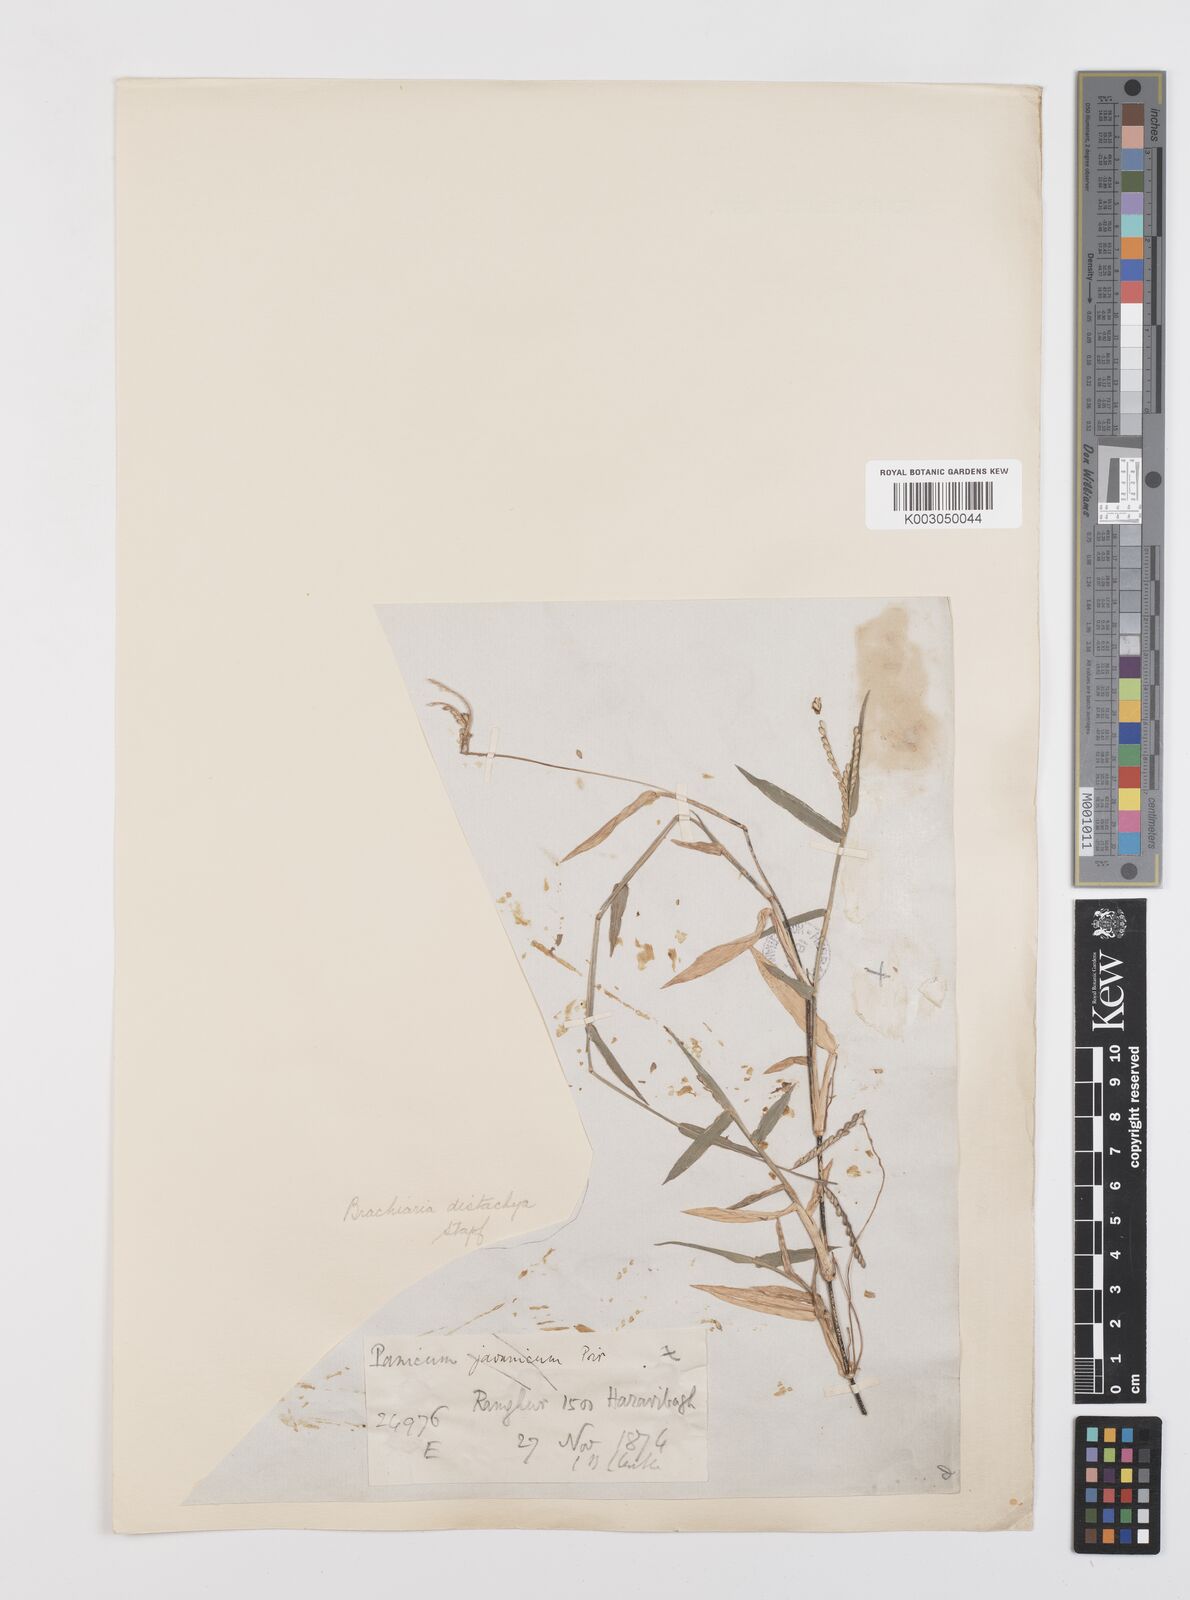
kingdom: Plantae
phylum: Tracheophyta
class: Liliopsida
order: Poales
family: Poaceae
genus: Urochloa
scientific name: Urochloa distachyos
